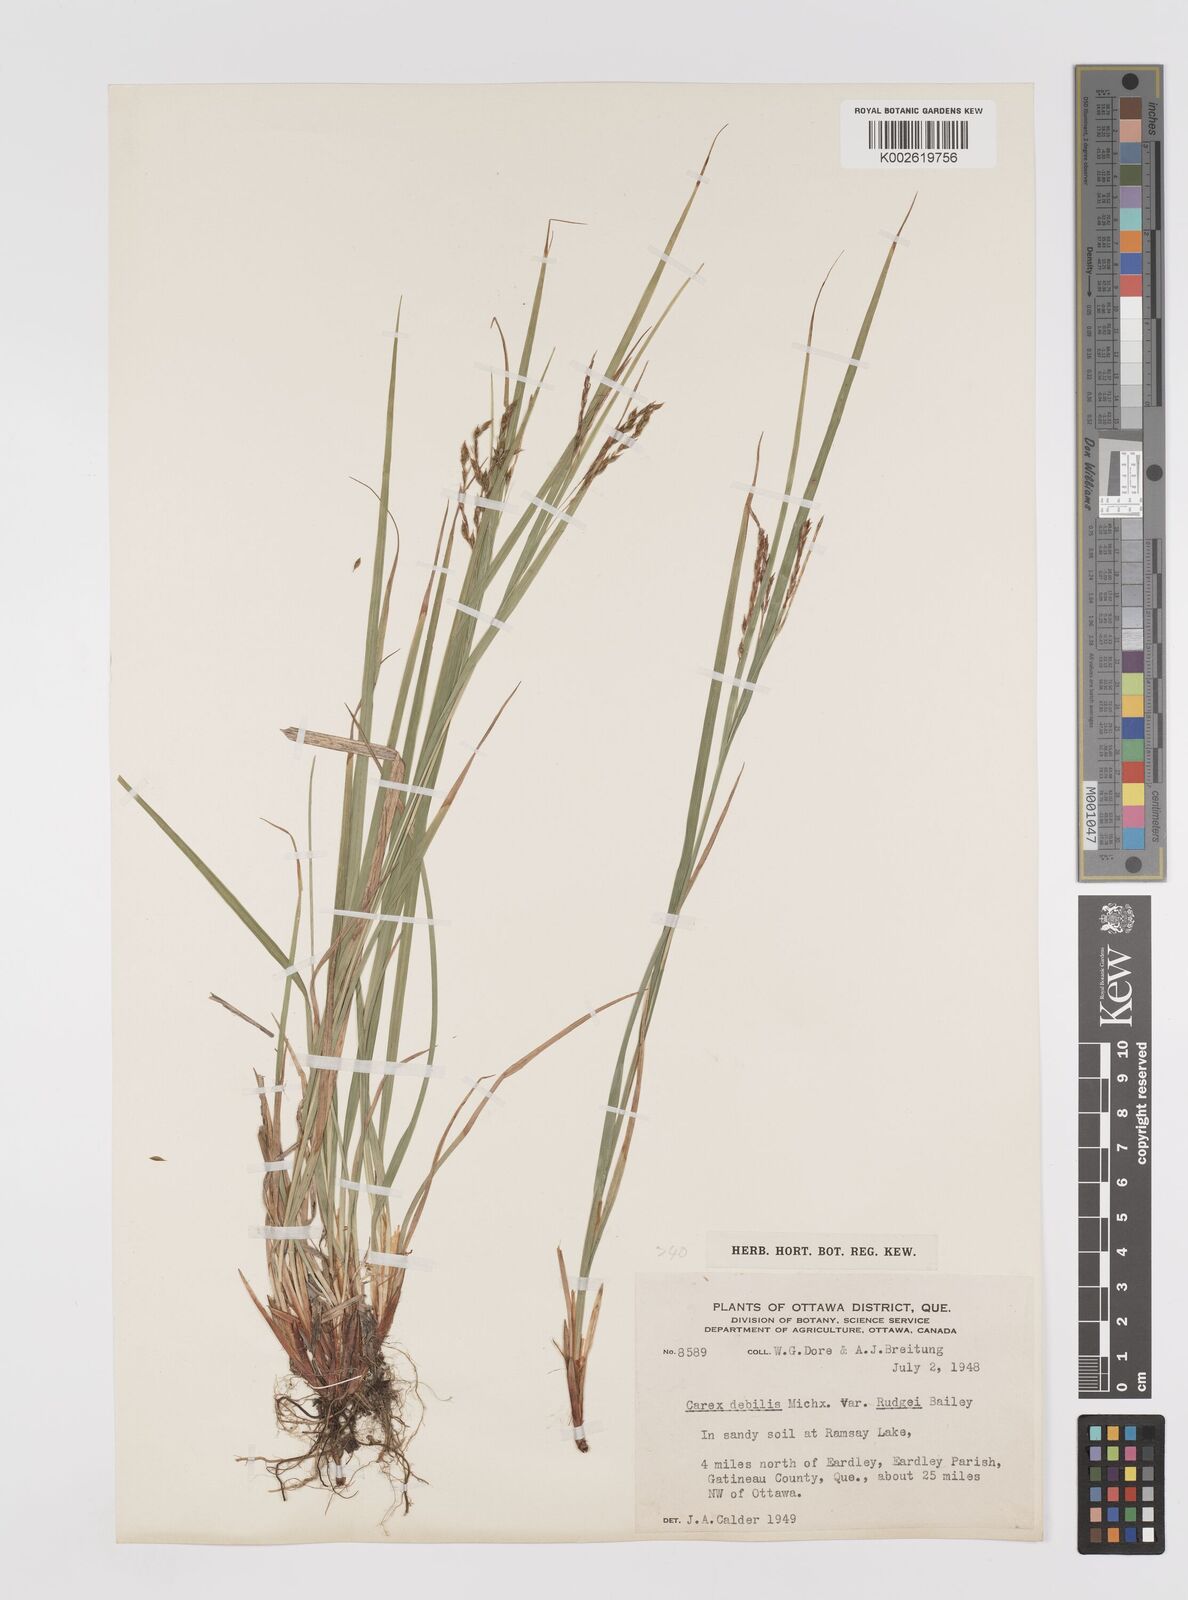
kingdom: Plantae
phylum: Tracheophyta
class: Liliopsida
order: Poales
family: Cyperaceae
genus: Carex
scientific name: Carex debilis
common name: White-edge sedge
